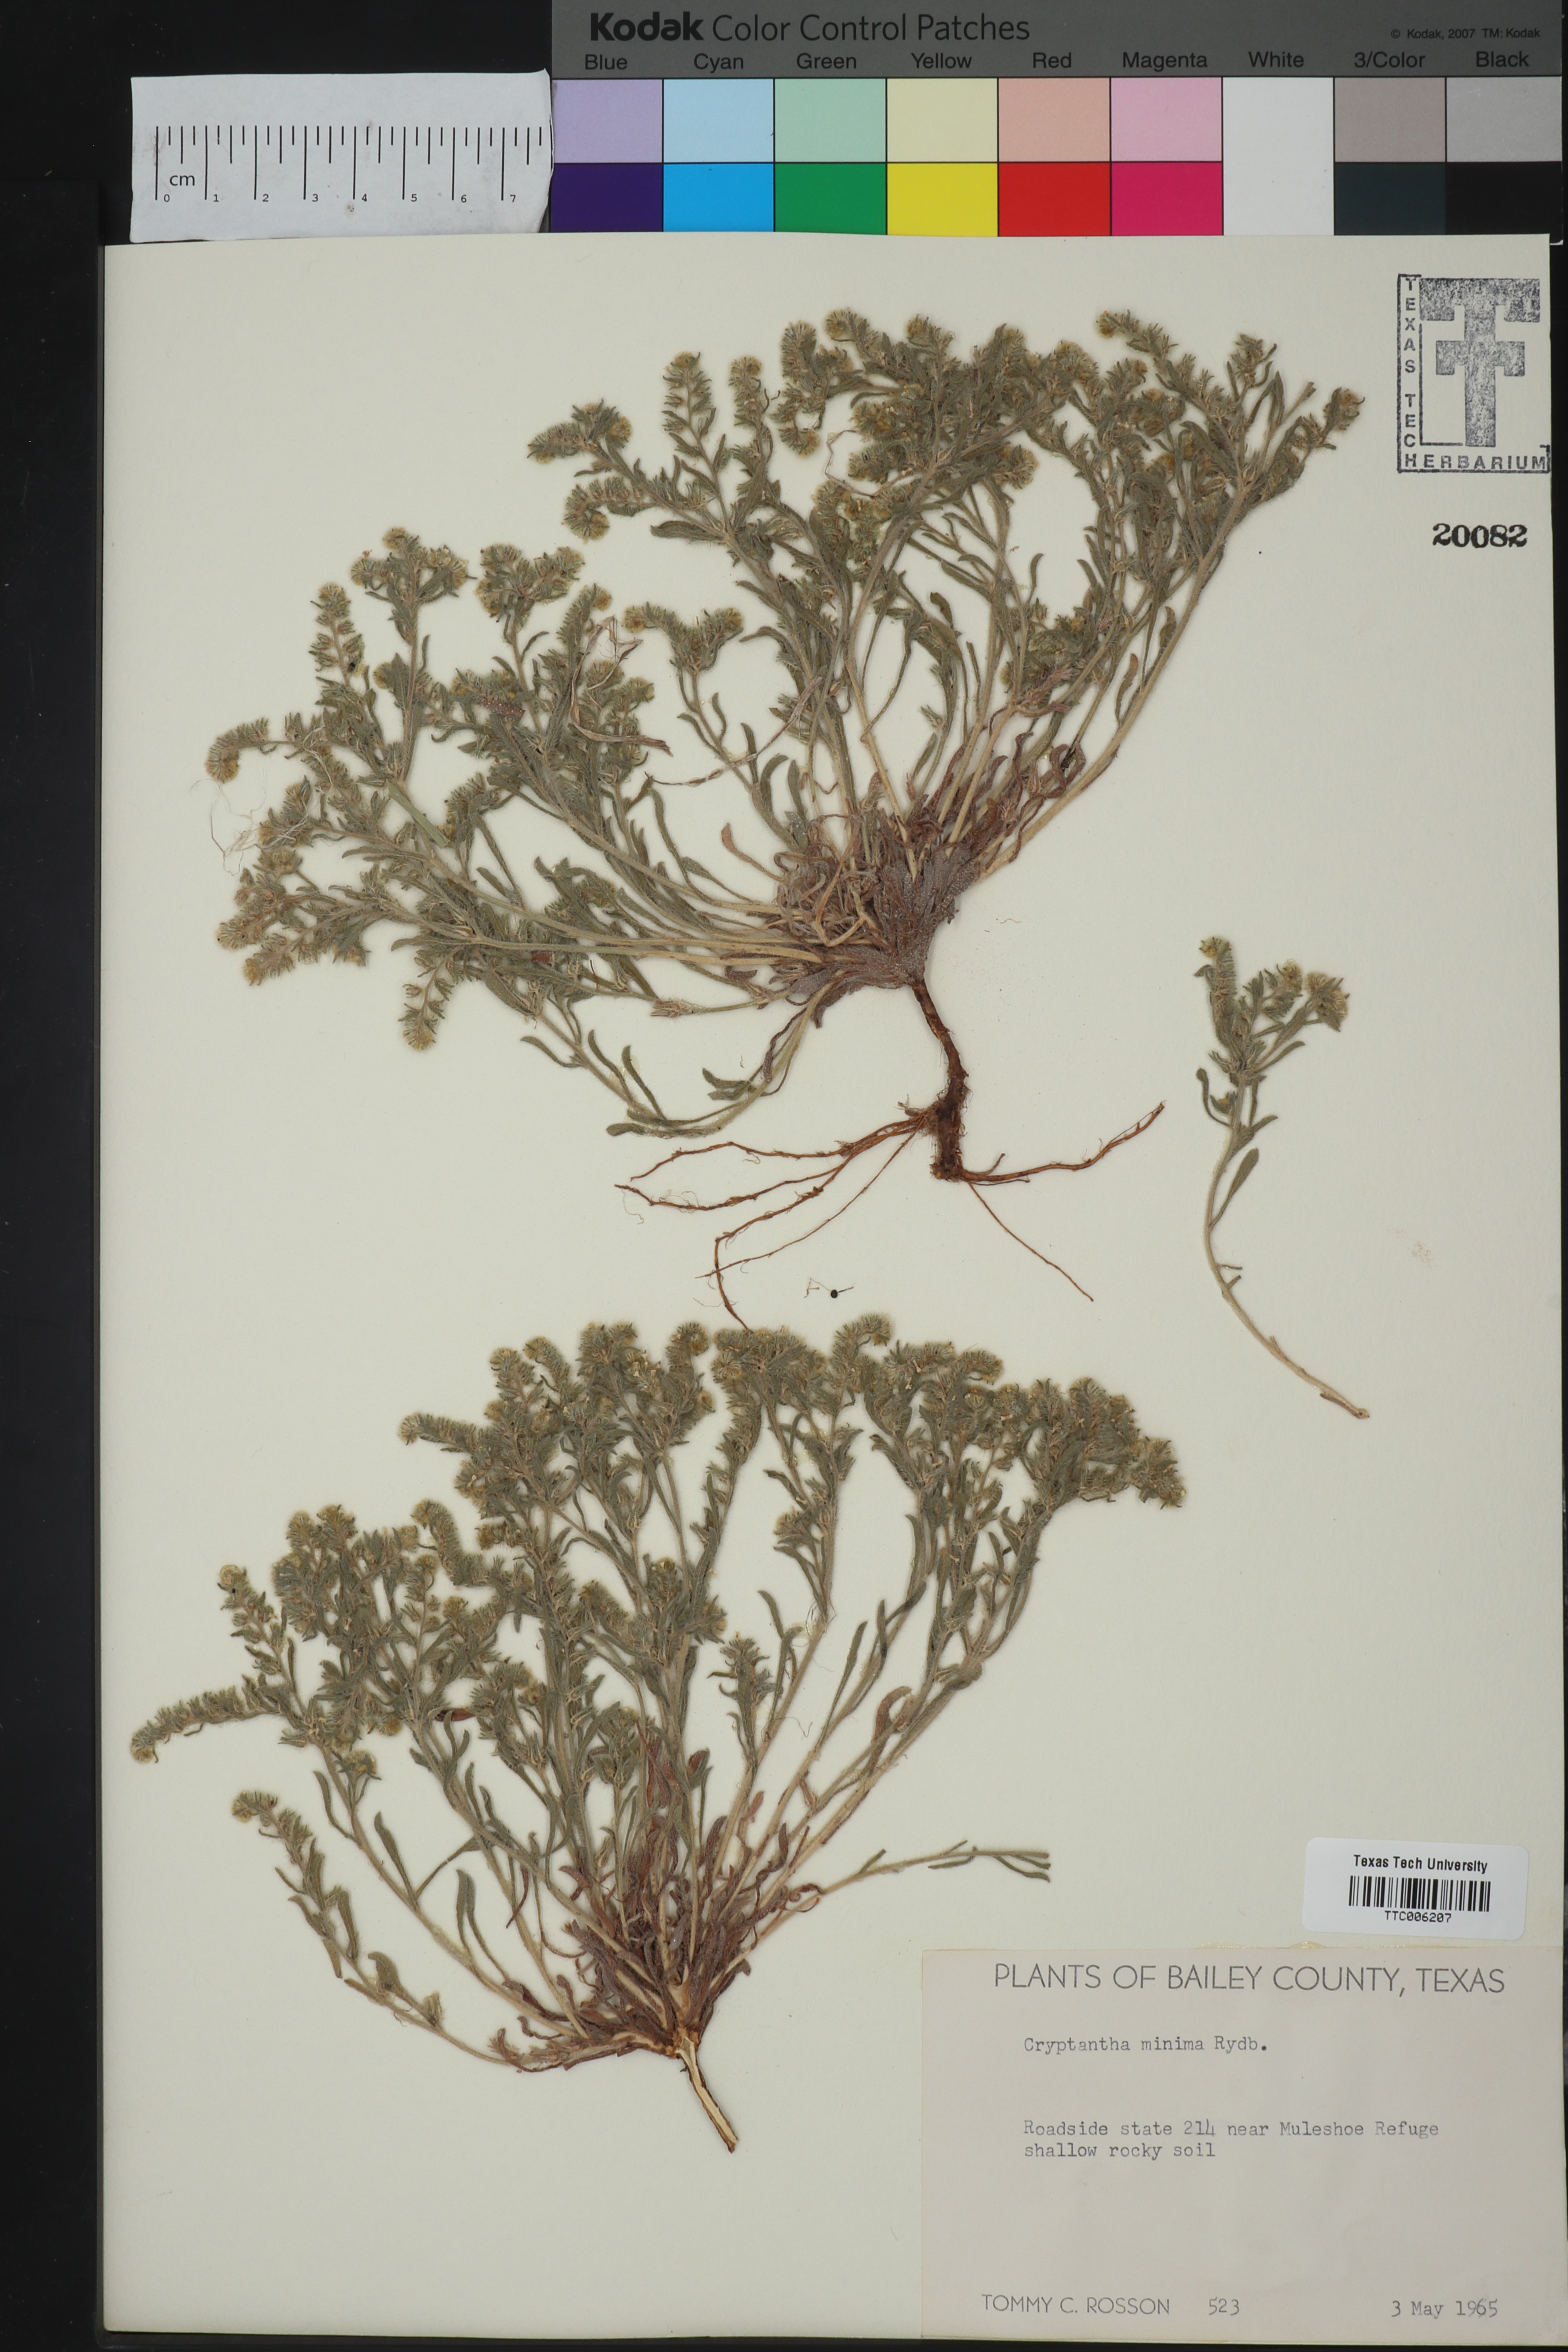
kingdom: Plantae
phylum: Tracheophyta
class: Magnoliopsida
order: Boraginales
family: Boraginaceae
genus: Cryptantha
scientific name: Cryptantha minima
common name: Little cat's-eye
